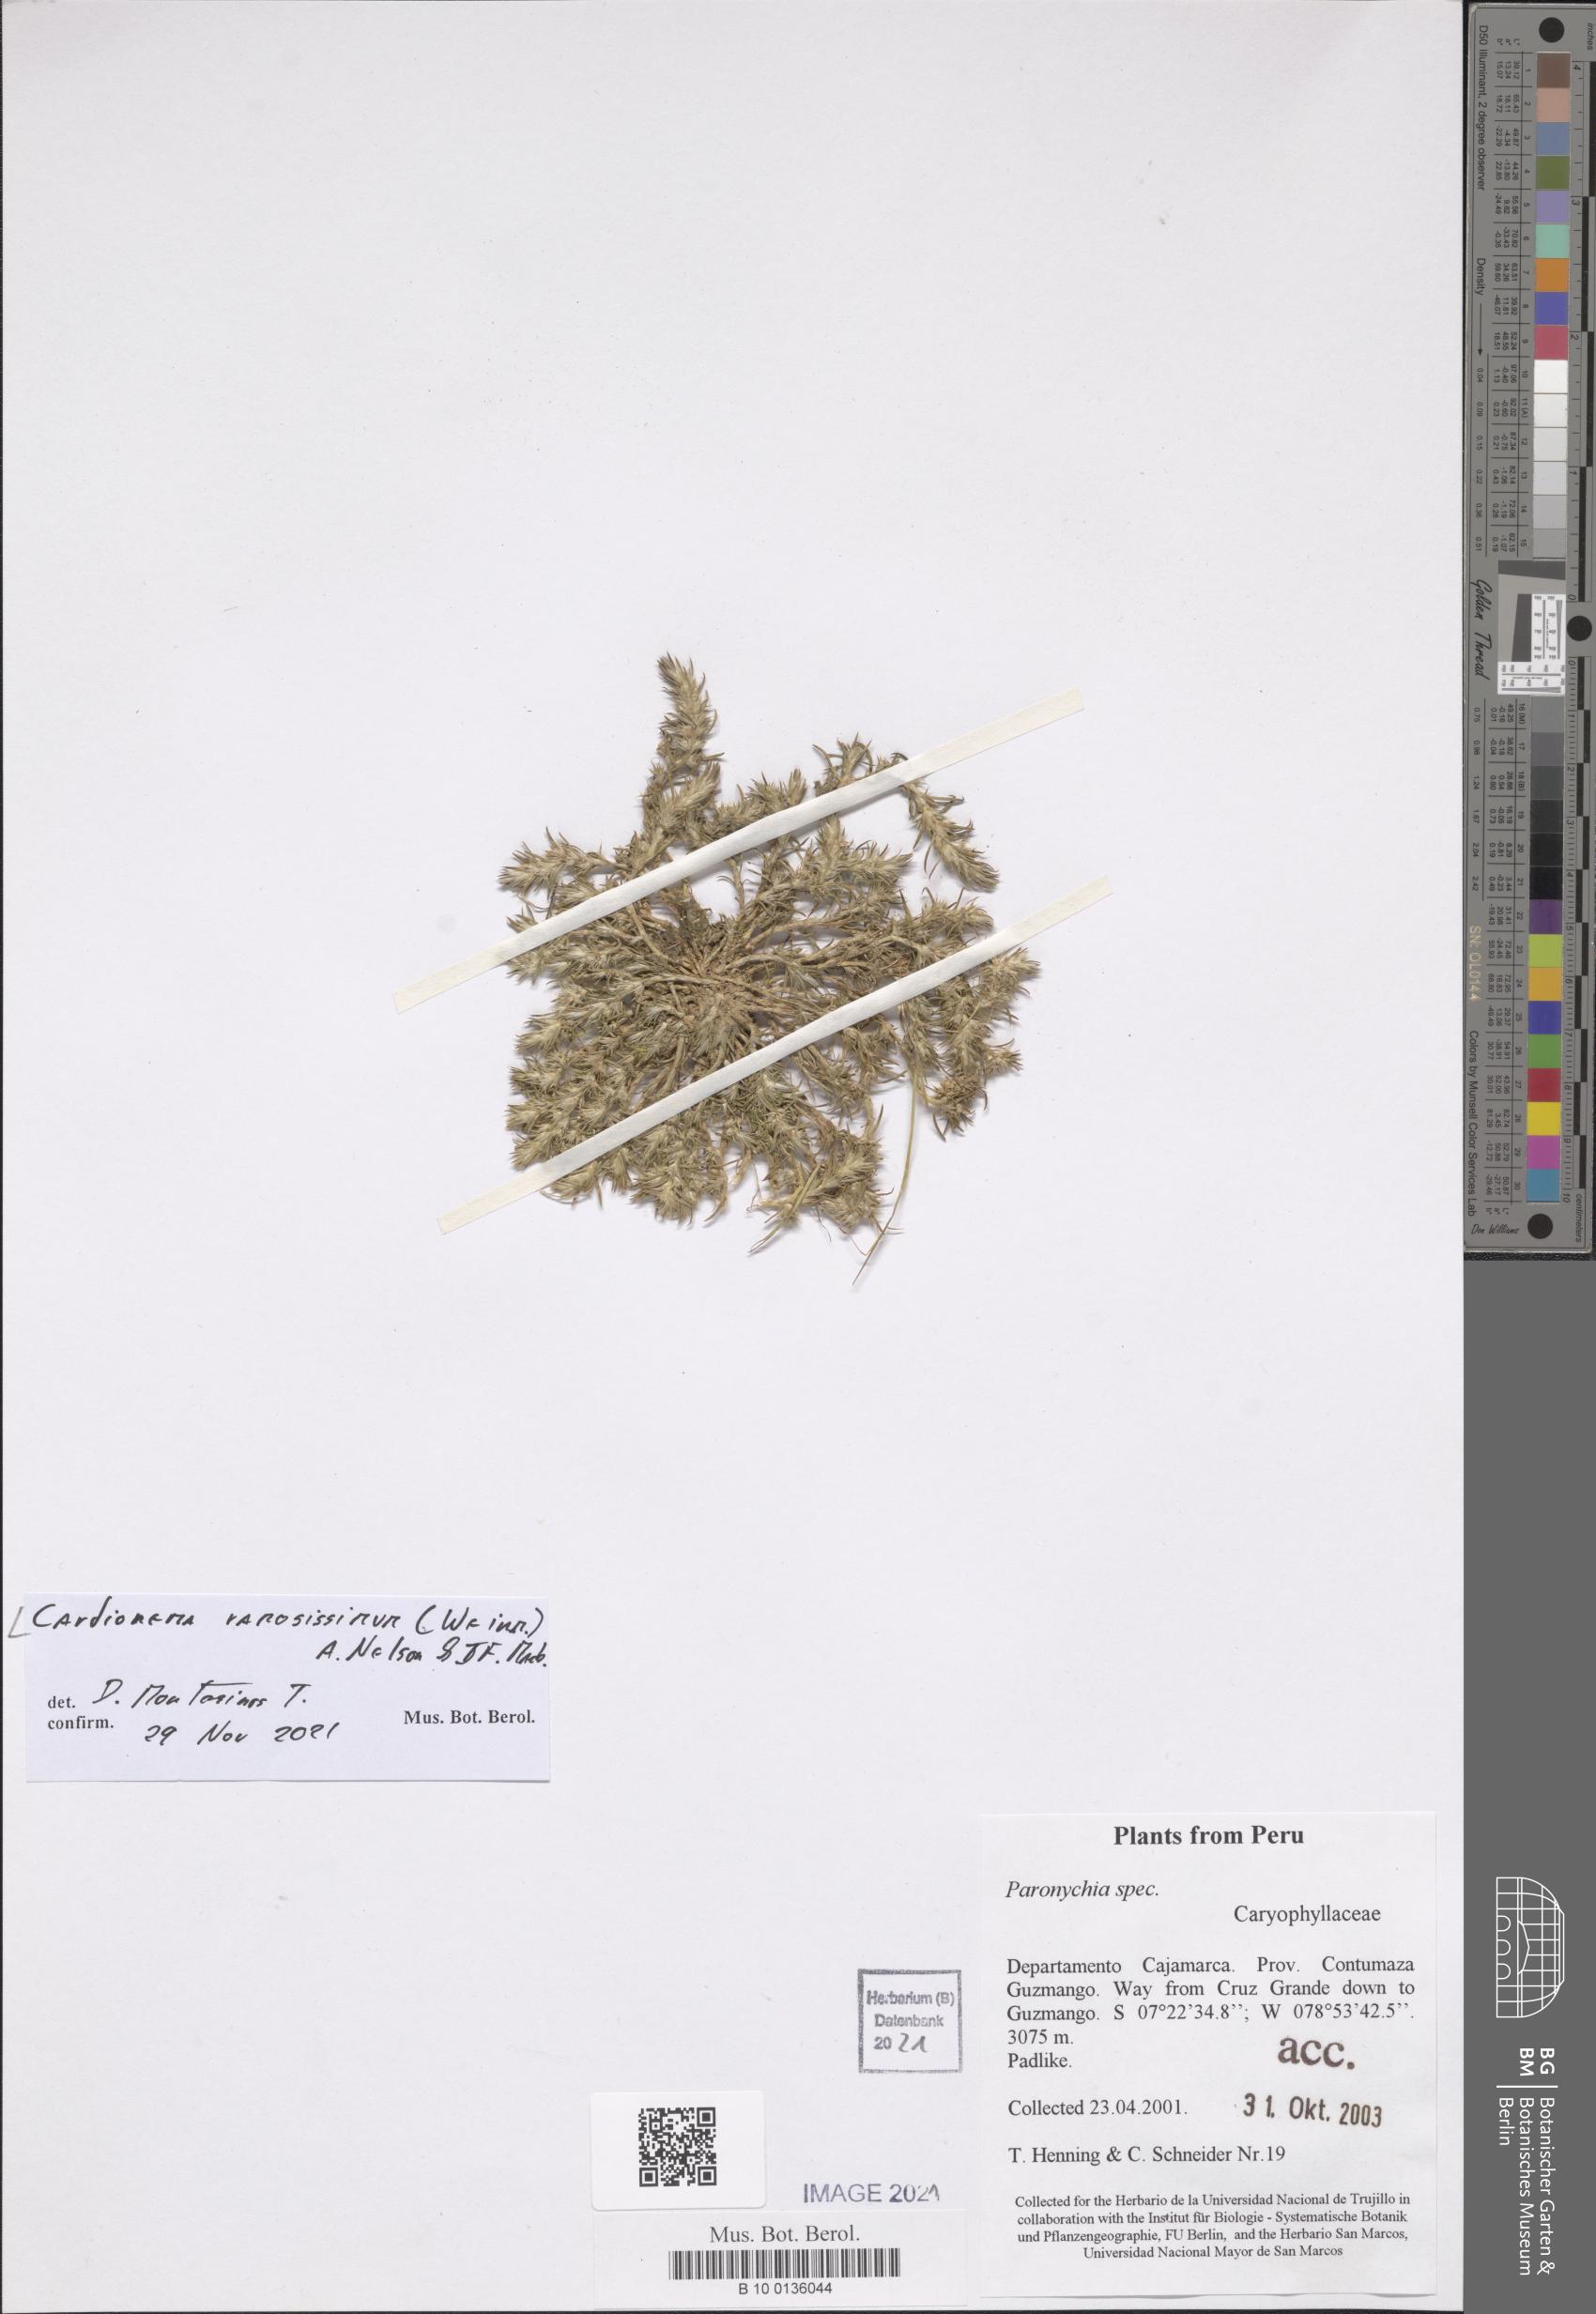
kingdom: Plantae
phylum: Tracheophyta
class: Magnoliopsida
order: Caryophyllales
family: Caryophyllaceae
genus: Cardionema
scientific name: Cardionema ramosissima
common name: Sandcarpet
